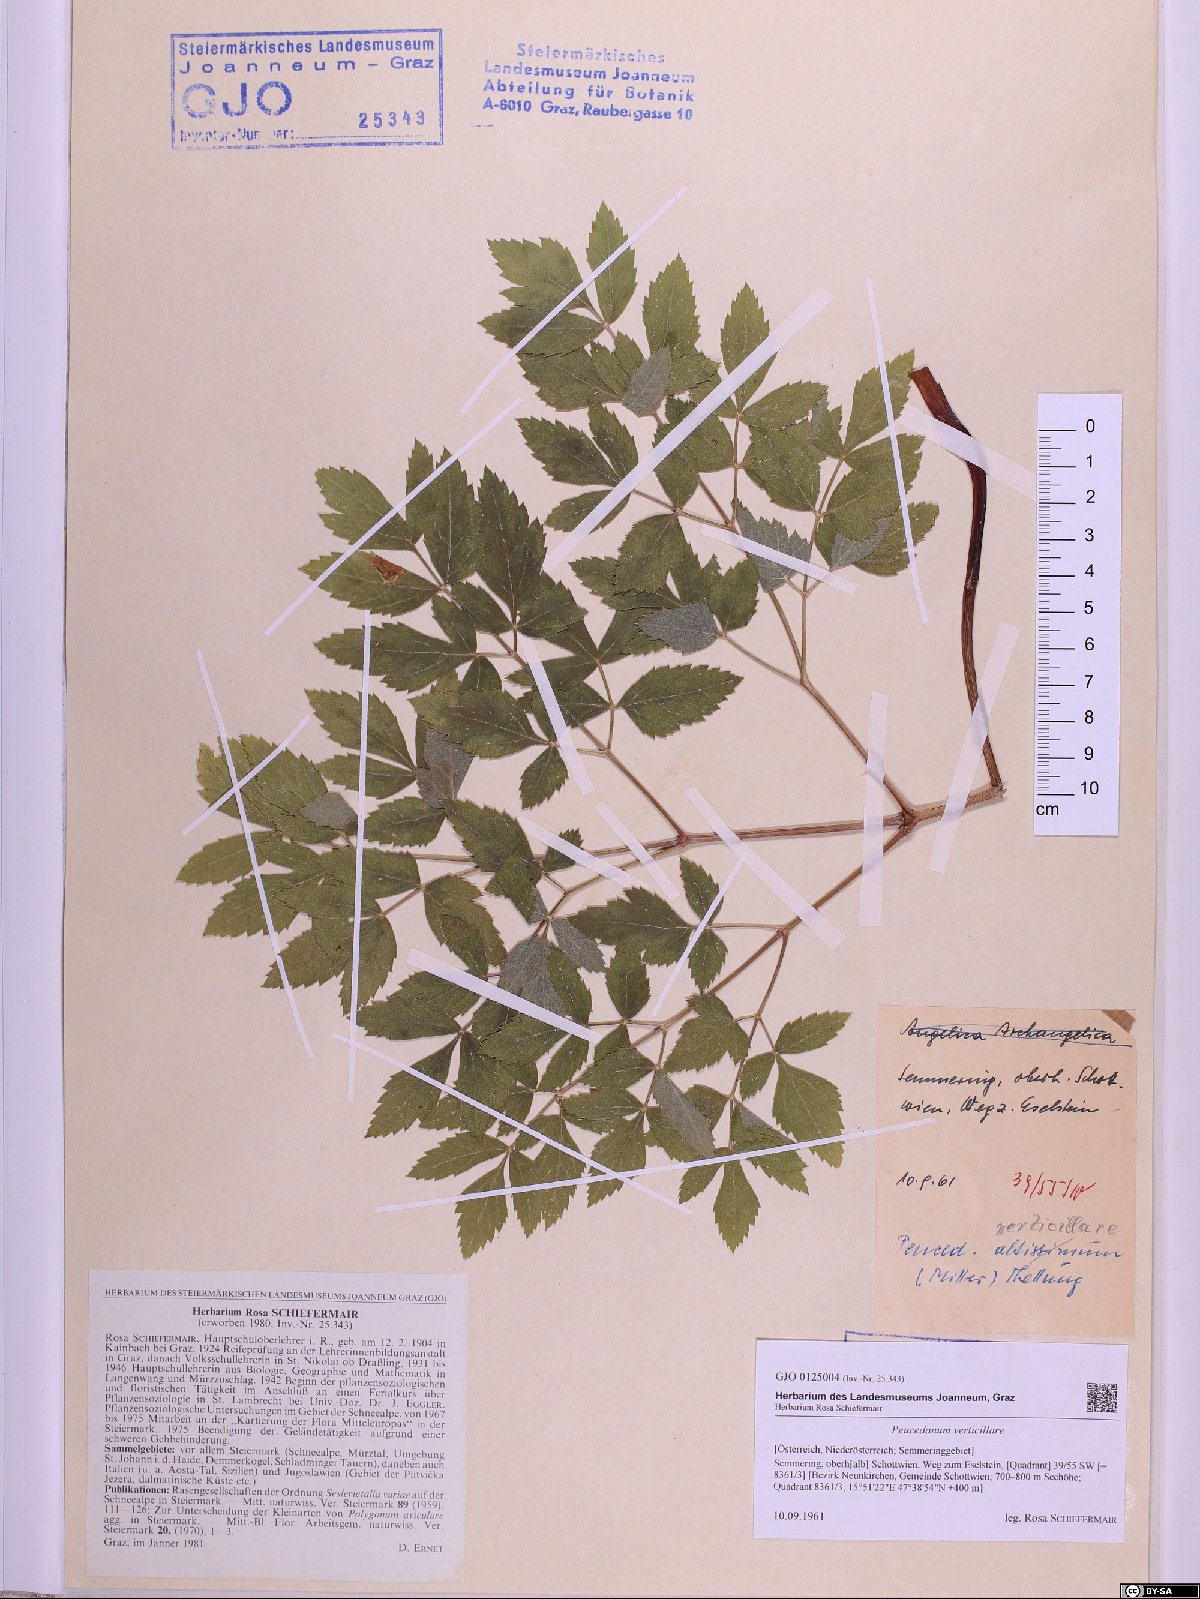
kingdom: Plantae
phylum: Tracheophyta
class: Magnoliopsida
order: Apiales
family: Apiaceae
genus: Tommasinia
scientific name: Tommasinia altissima
